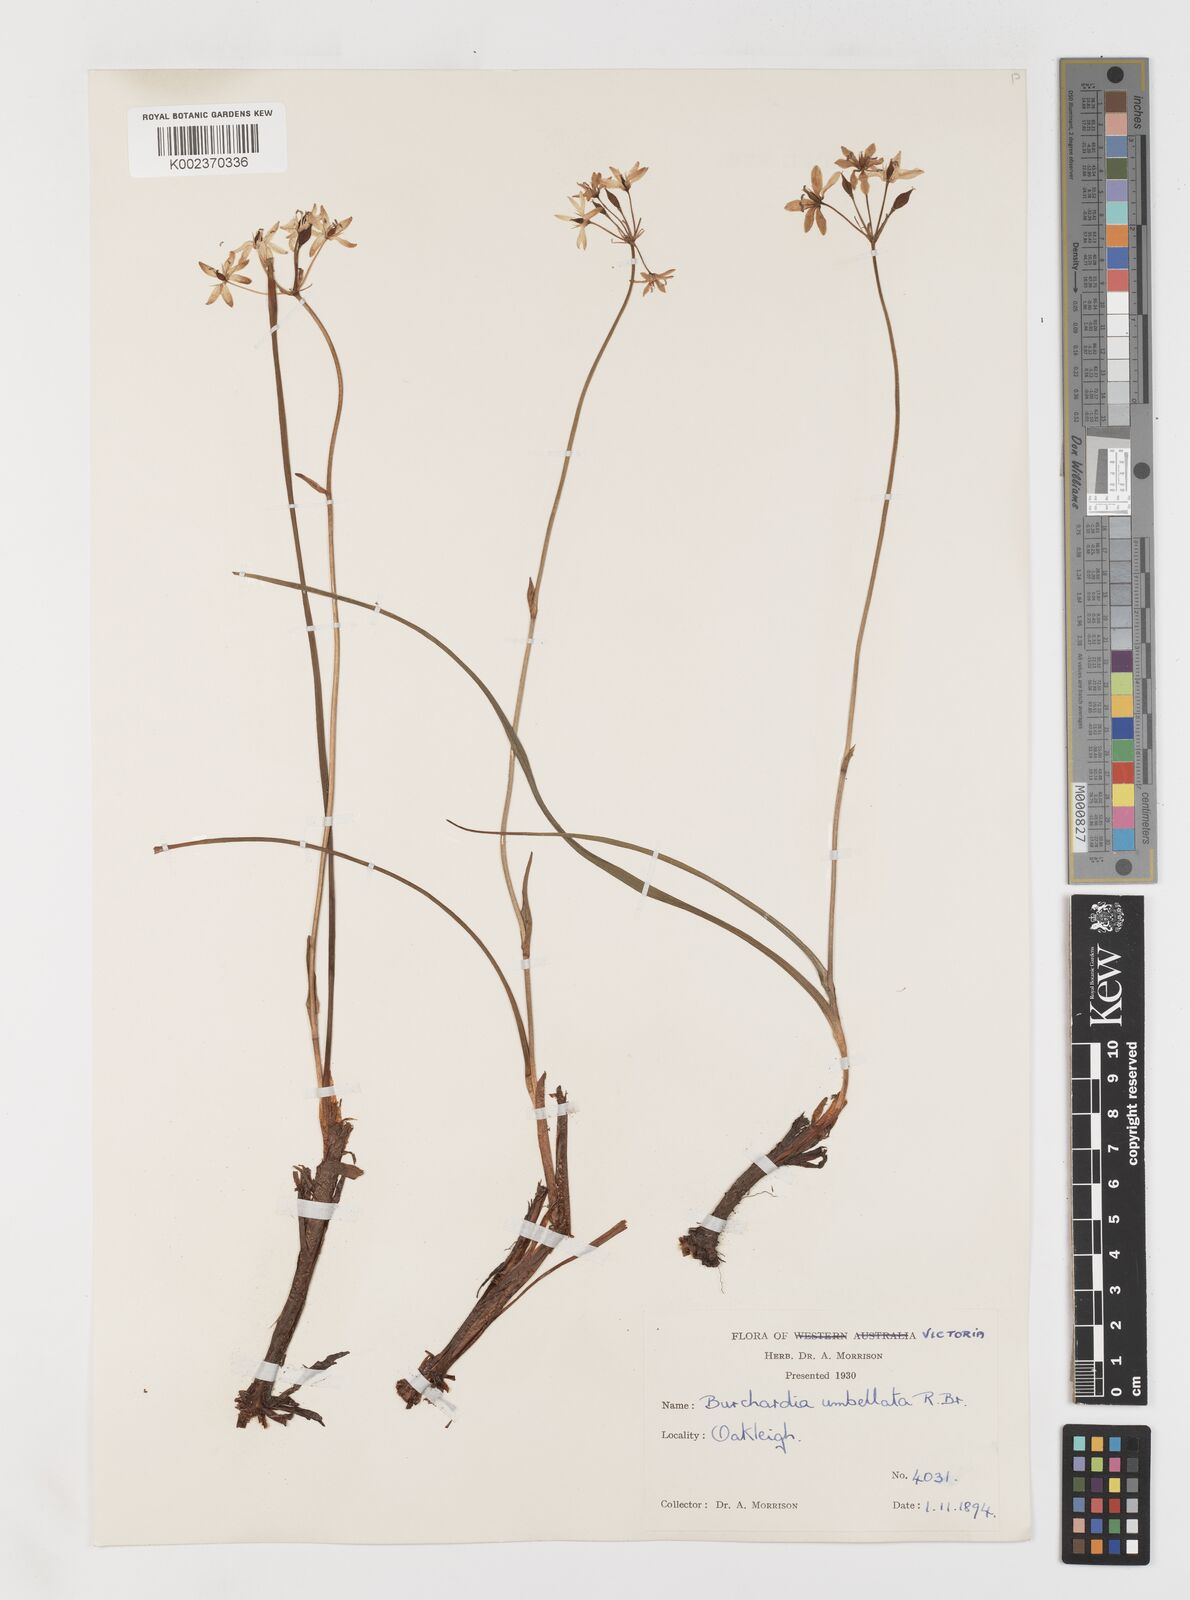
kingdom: Plantae
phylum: Tracheophyta
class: Liliopsida
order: Liliales
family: Colchicaceae
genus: Burchardia
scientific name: Burchardia umbellata
